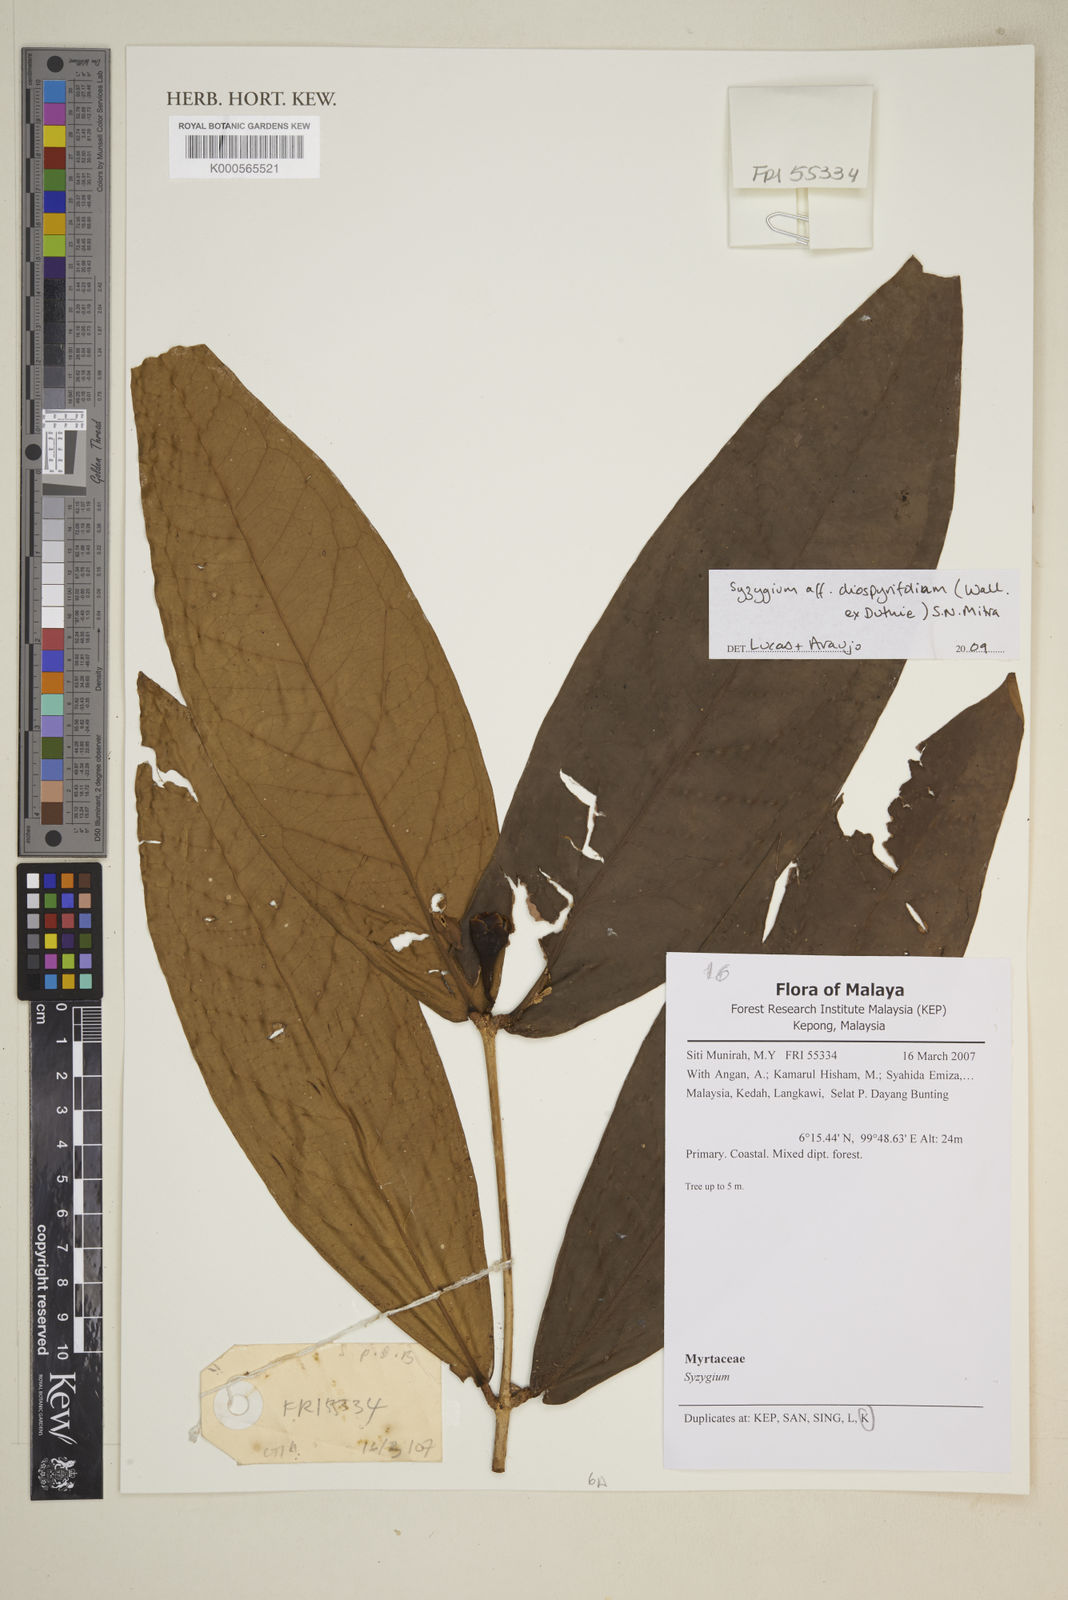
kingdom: Plantae
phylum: Tracheophyta
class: Magnoliopsida
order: Myrtales
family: Myrtaceae
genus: Syzygium
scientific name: Syzygium diospyrifolium
